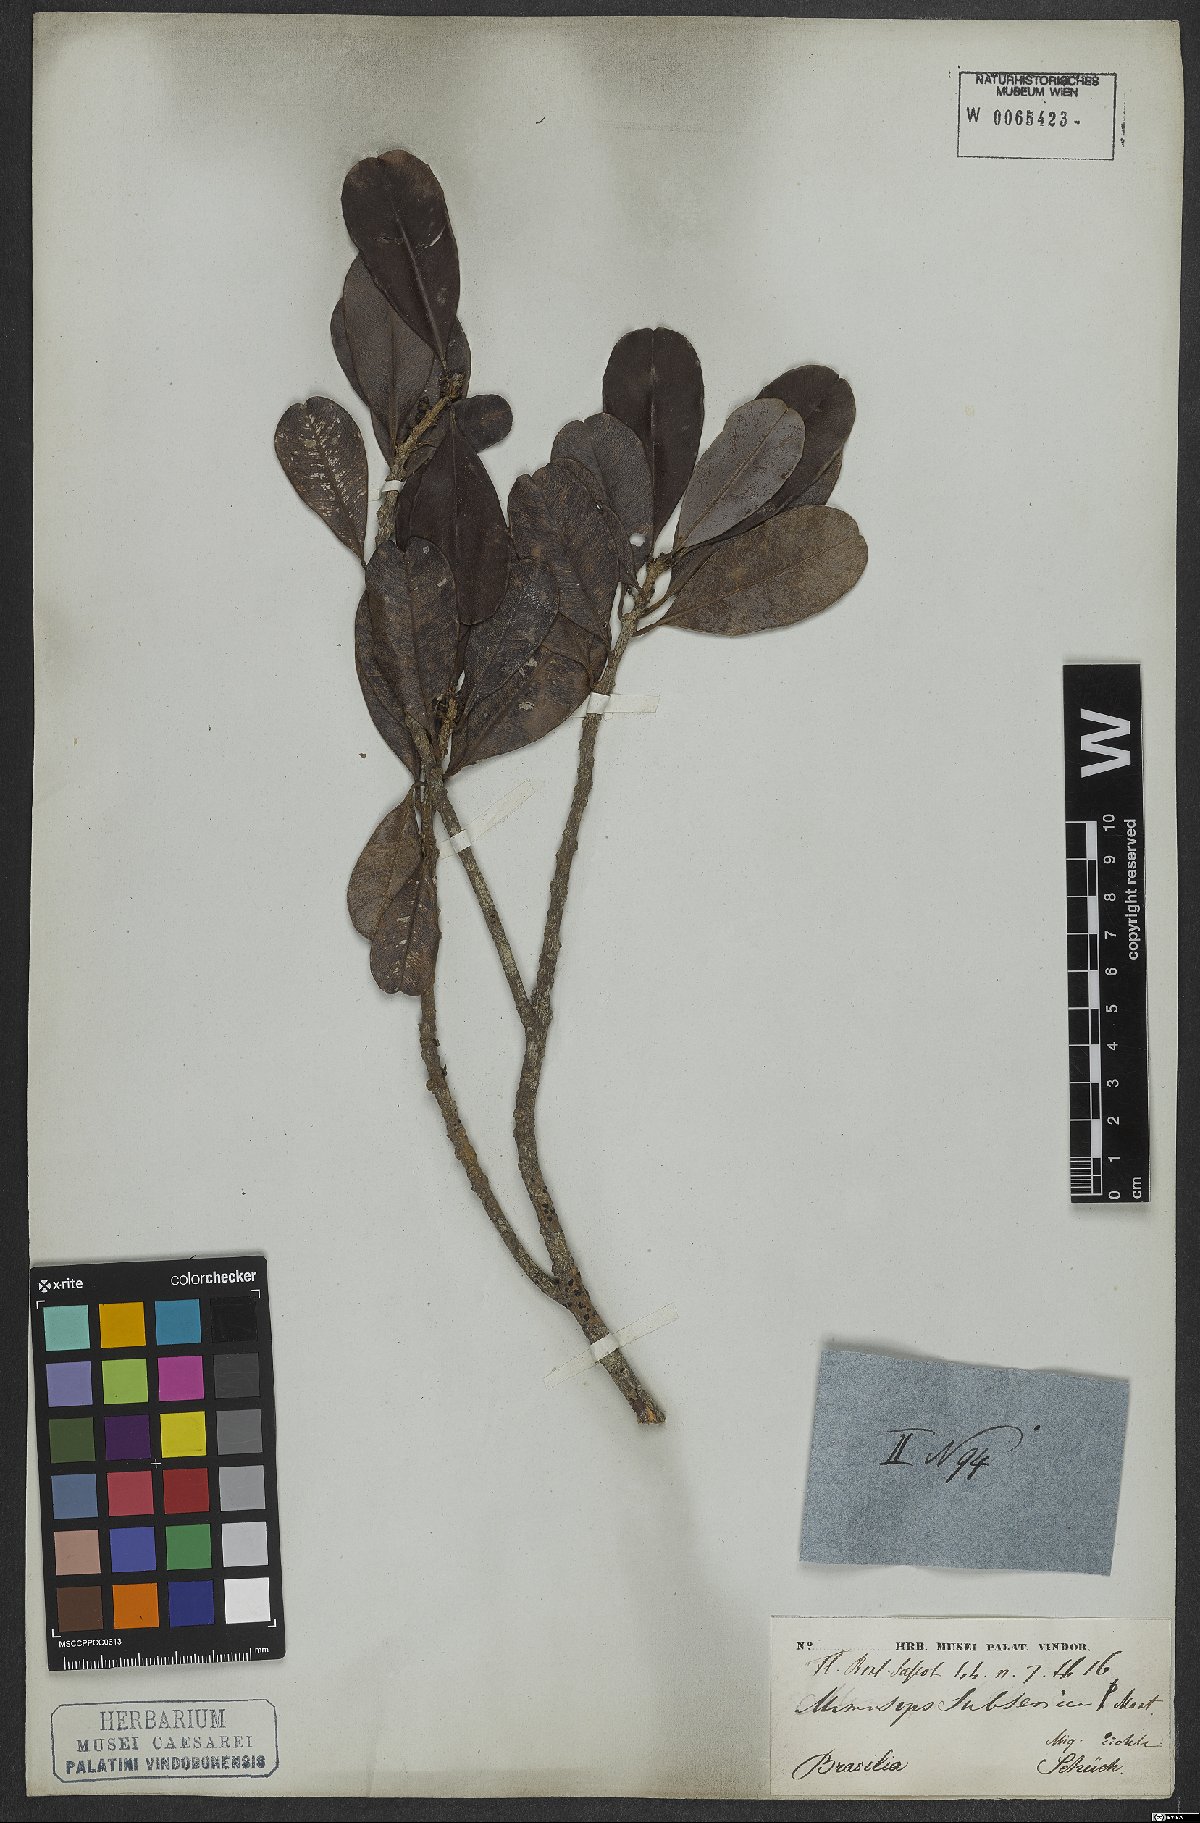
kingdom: Plantae
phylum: Tracheophyta
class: Magnoliopsida
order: Ericales
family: Sapotaceae
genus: Manilkara
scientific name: Manilkara subsericea
